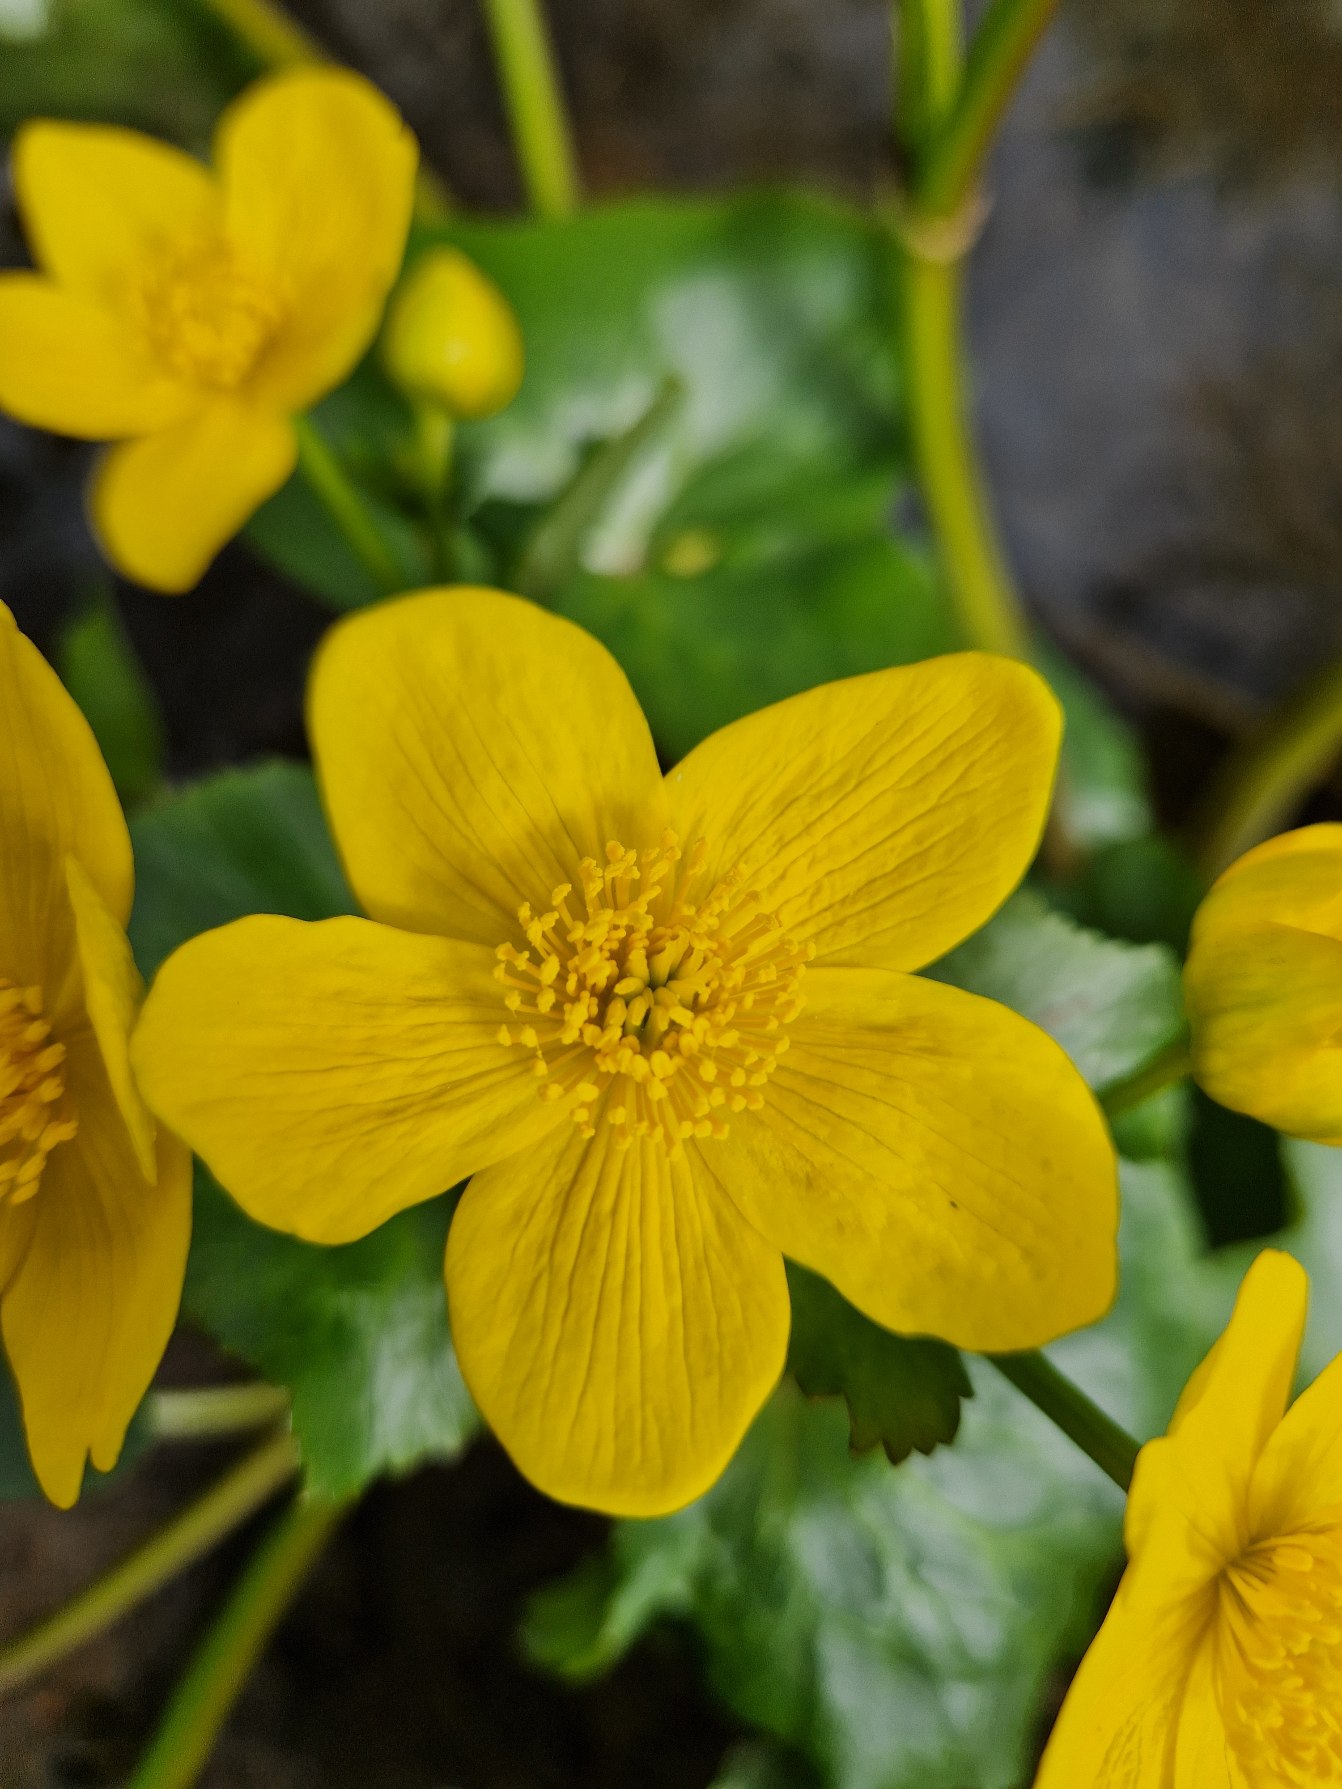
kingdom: Plantae
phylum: Tracheophyta
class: Magnoliopsida
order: Ranunculales
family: Ranunculaceae
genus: Caltha
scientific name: Caltha palustris
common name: Eng-kabbeleje
